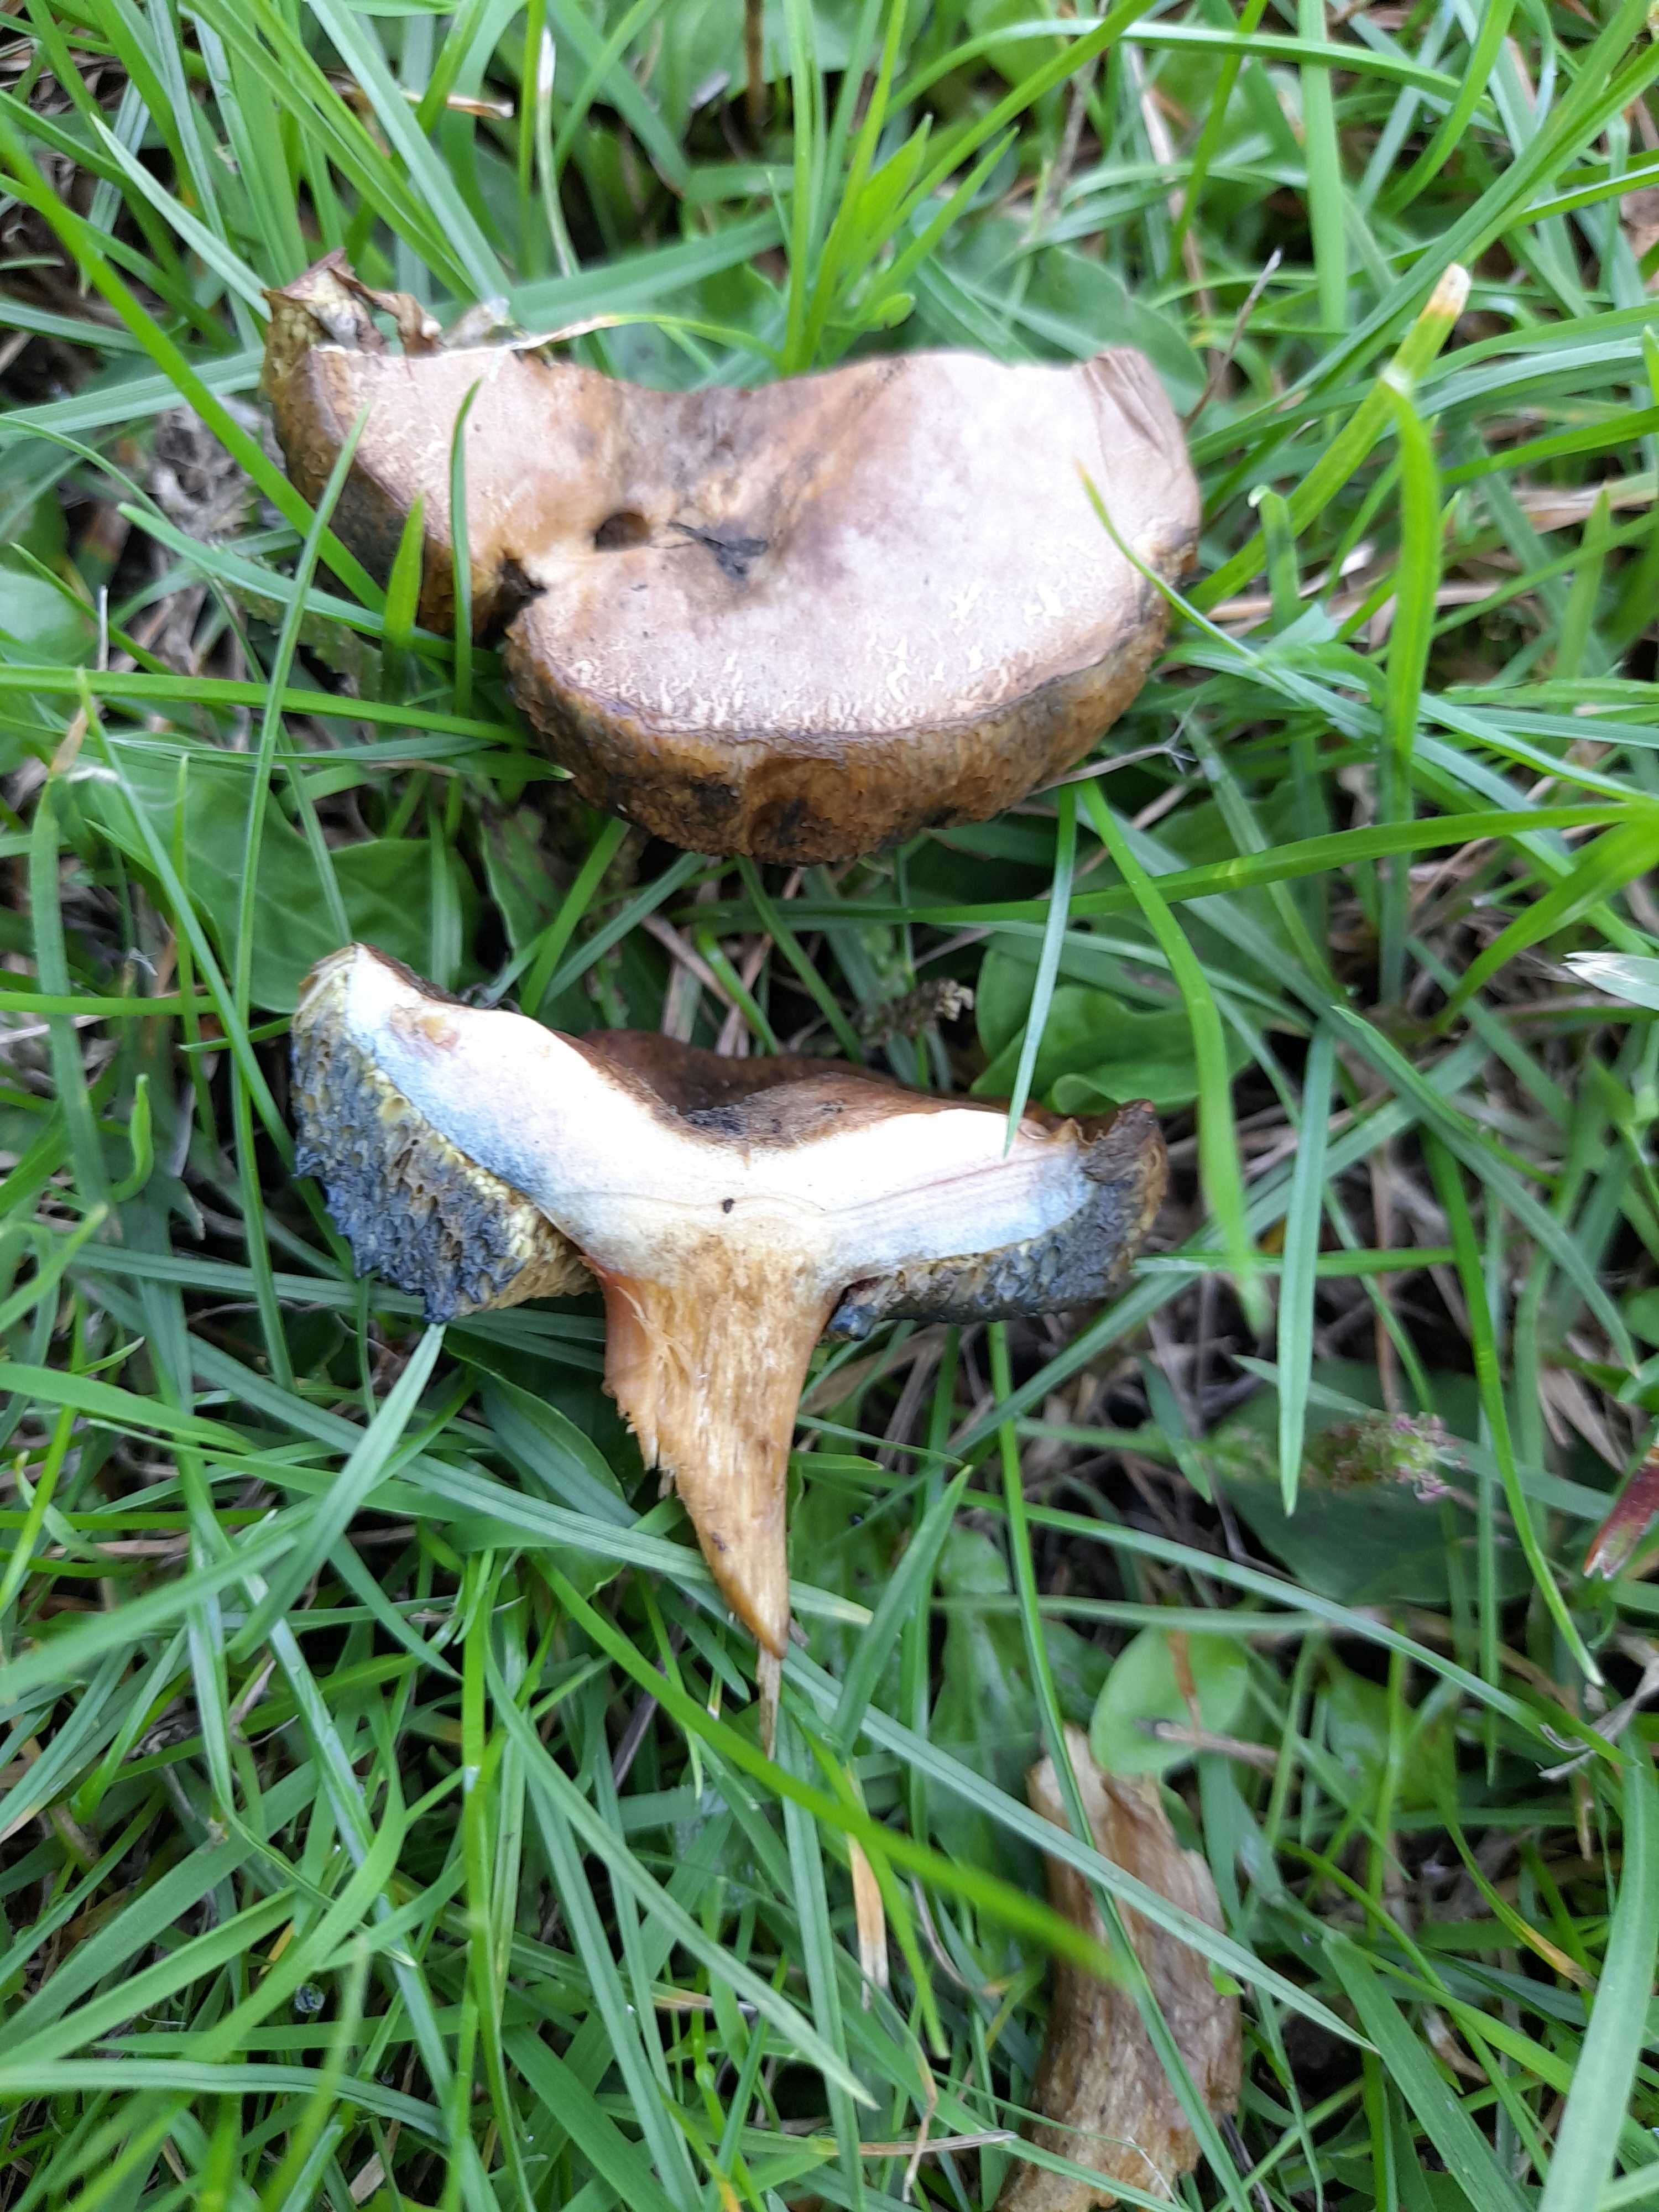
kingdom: Fungi
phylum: Basidiomycota
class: Agaricomycetes
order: Boletales
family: Boletaceae
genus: Hortiboletus
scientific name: Hortiboletus bubalinus
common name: aurora-rørhat
